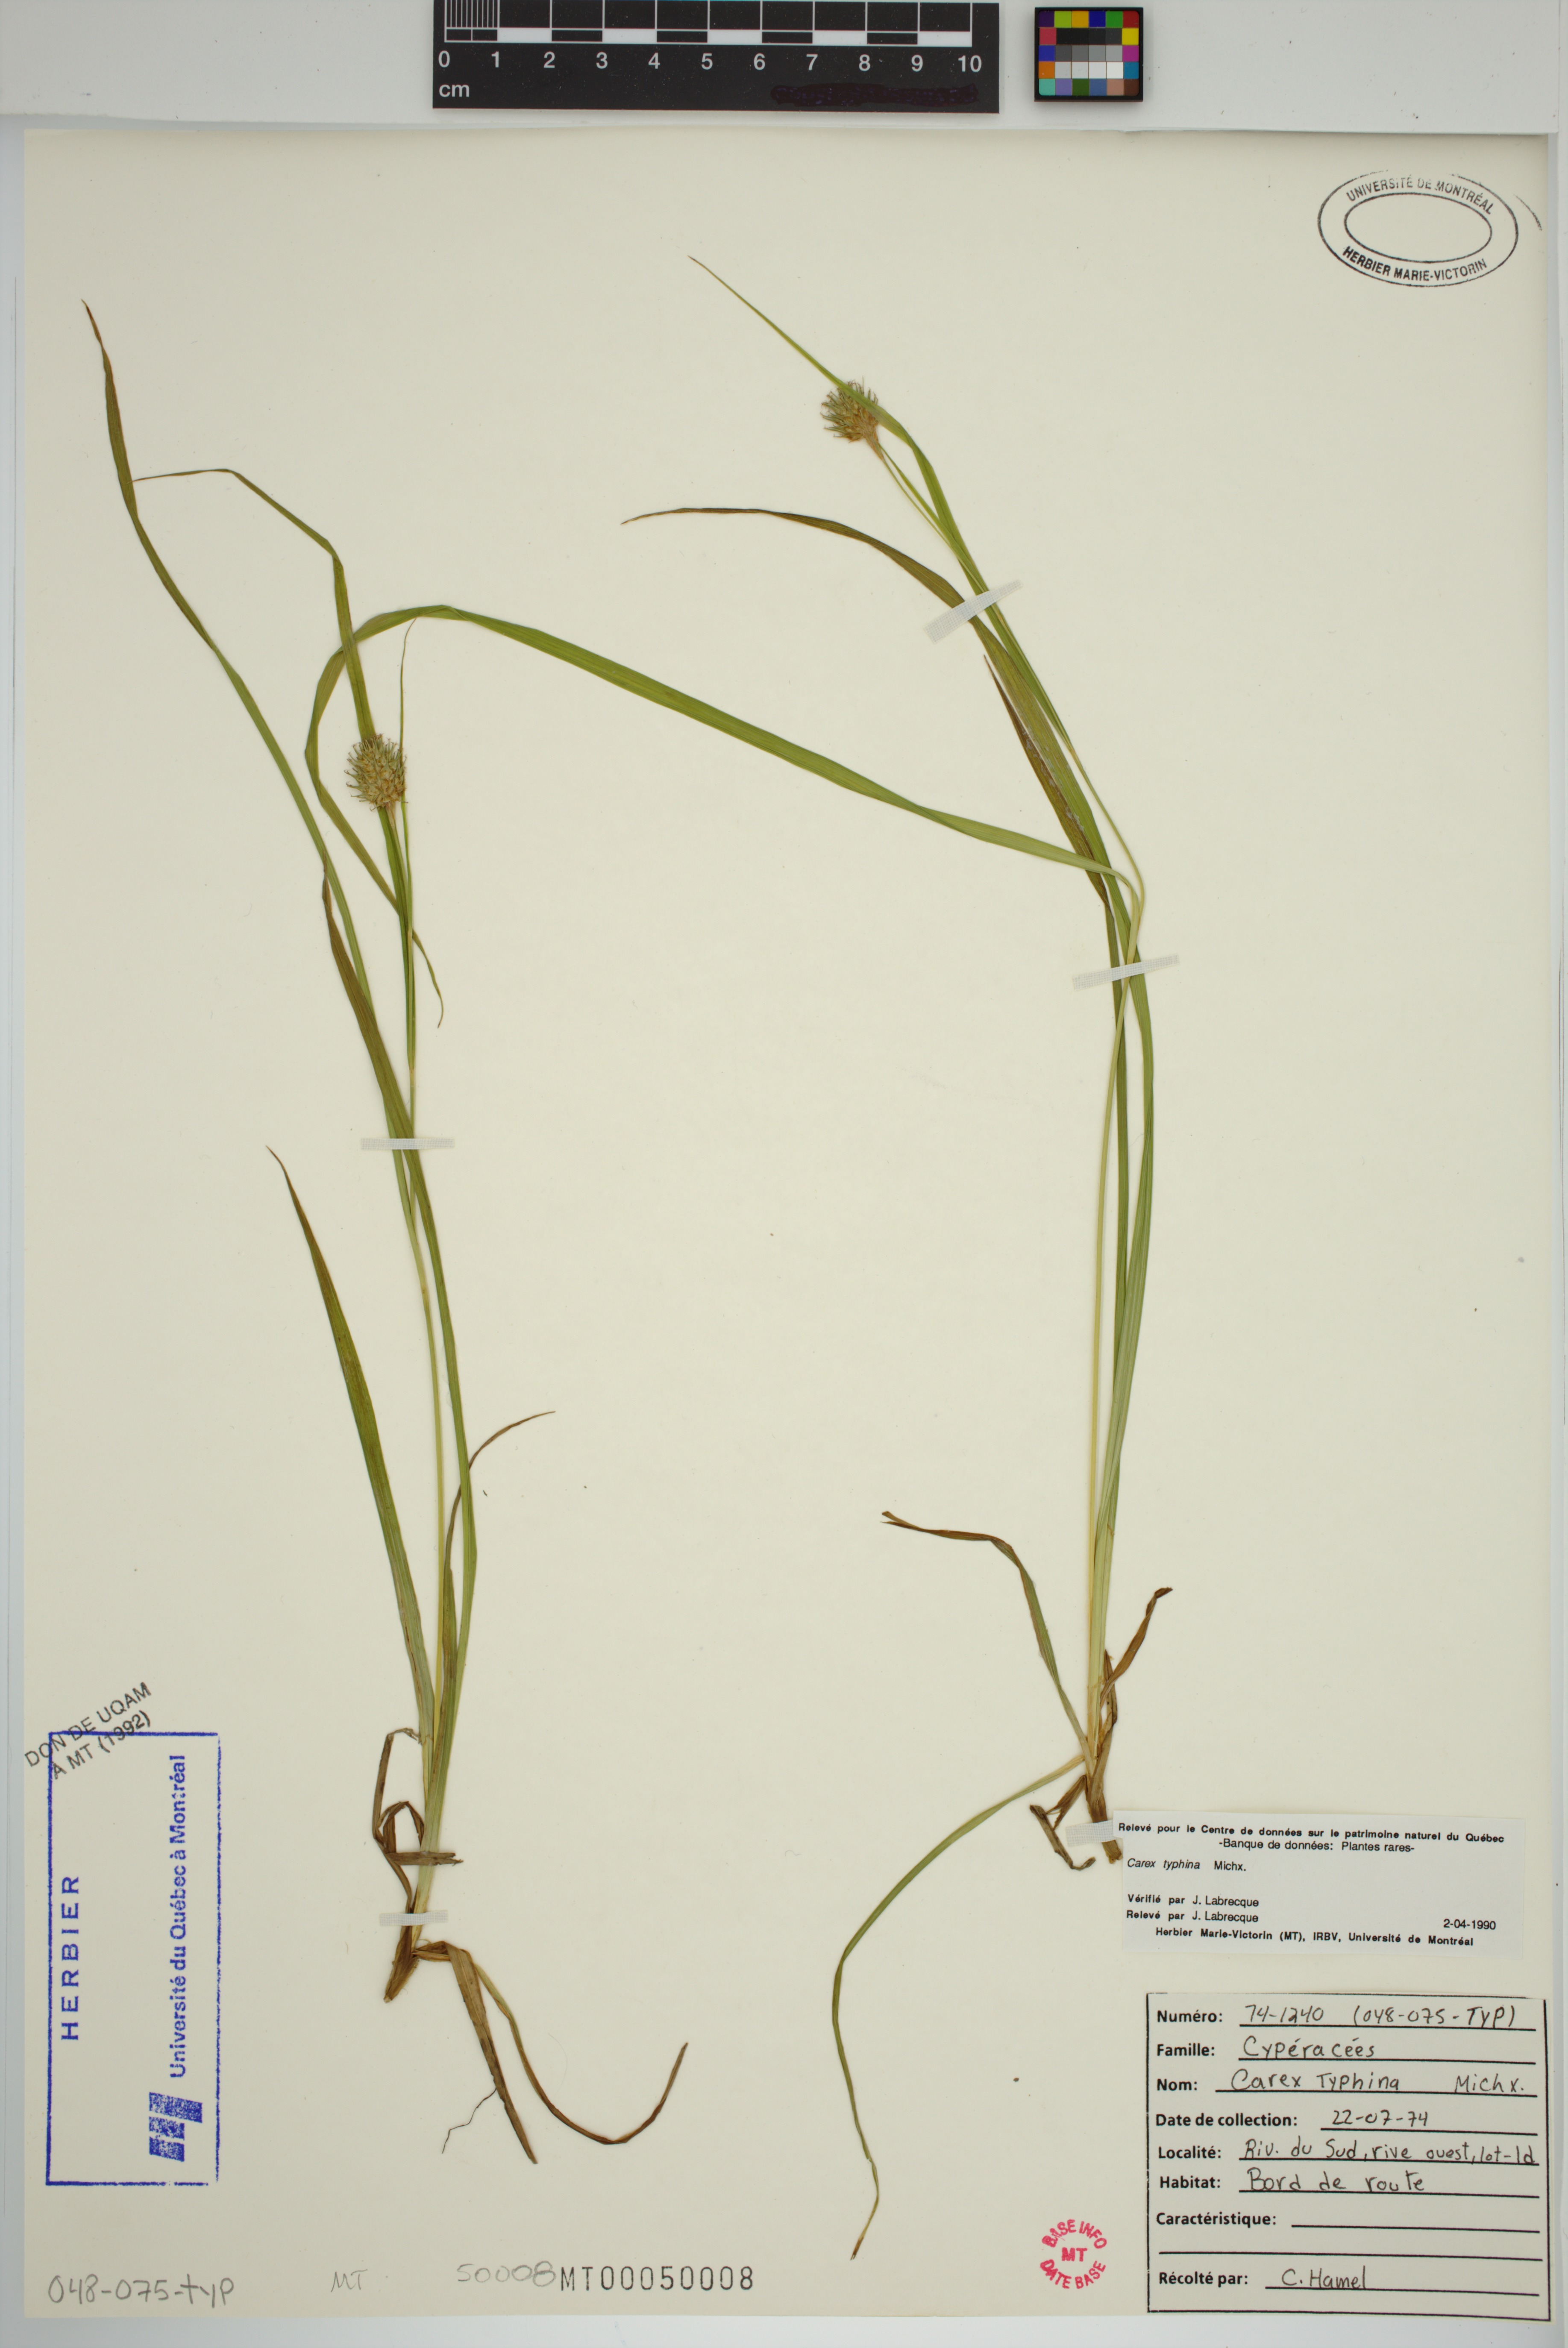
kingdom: Plantae
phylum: Tracheophyta
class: Liliopsida
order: Poales
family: Cyperaceae
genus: Carex
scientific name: Carex typhina
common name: Cattail sedge
